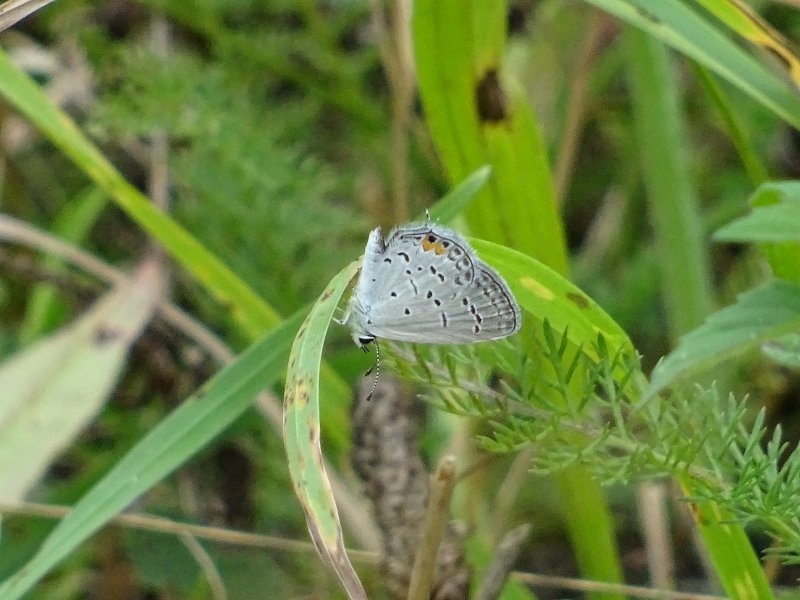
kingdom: Animalia
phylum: Arthropoda
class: Insecta
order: Lepidoptera
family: Lycaenidae
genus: Elkalyce
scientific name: Elkalyce comyntas
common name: Eastern Tailed-Blue
